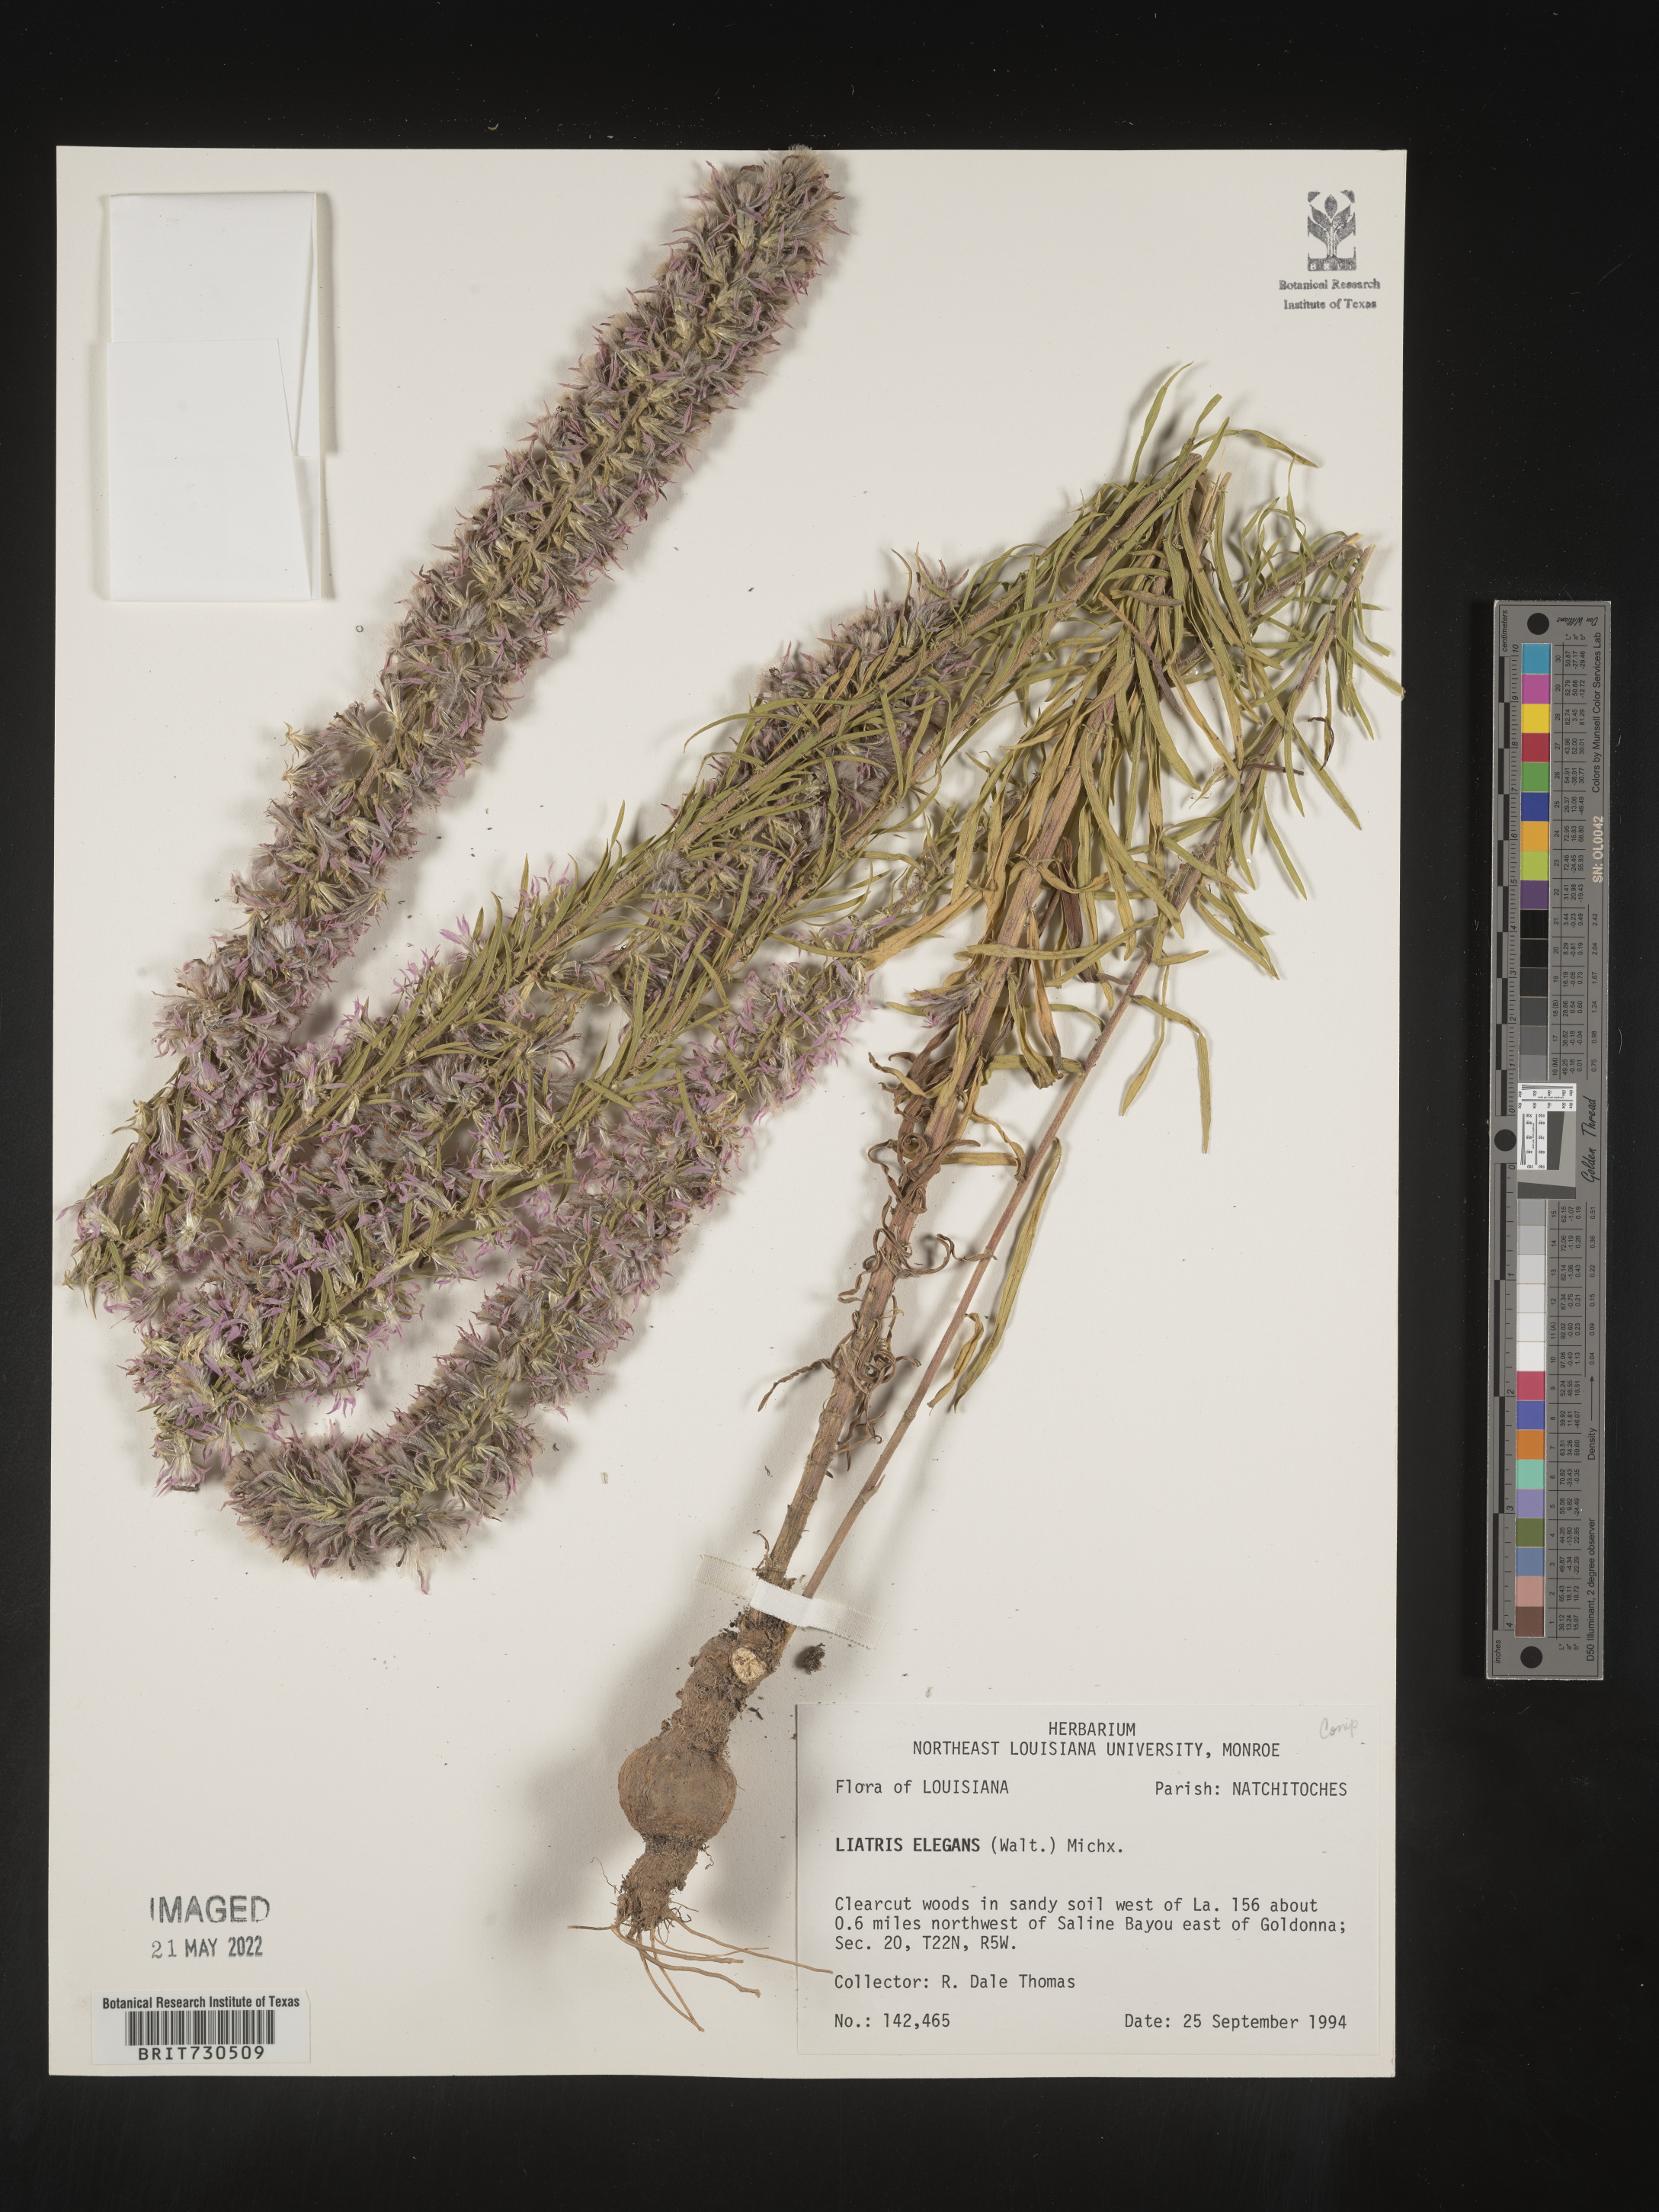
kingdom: Plantae
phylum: Tracheophyta
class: Magnoliopsida
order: Asterales
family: Asteraceae
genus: Liatris
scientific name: Liatris elegans
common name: Pinkscale gayfeather
